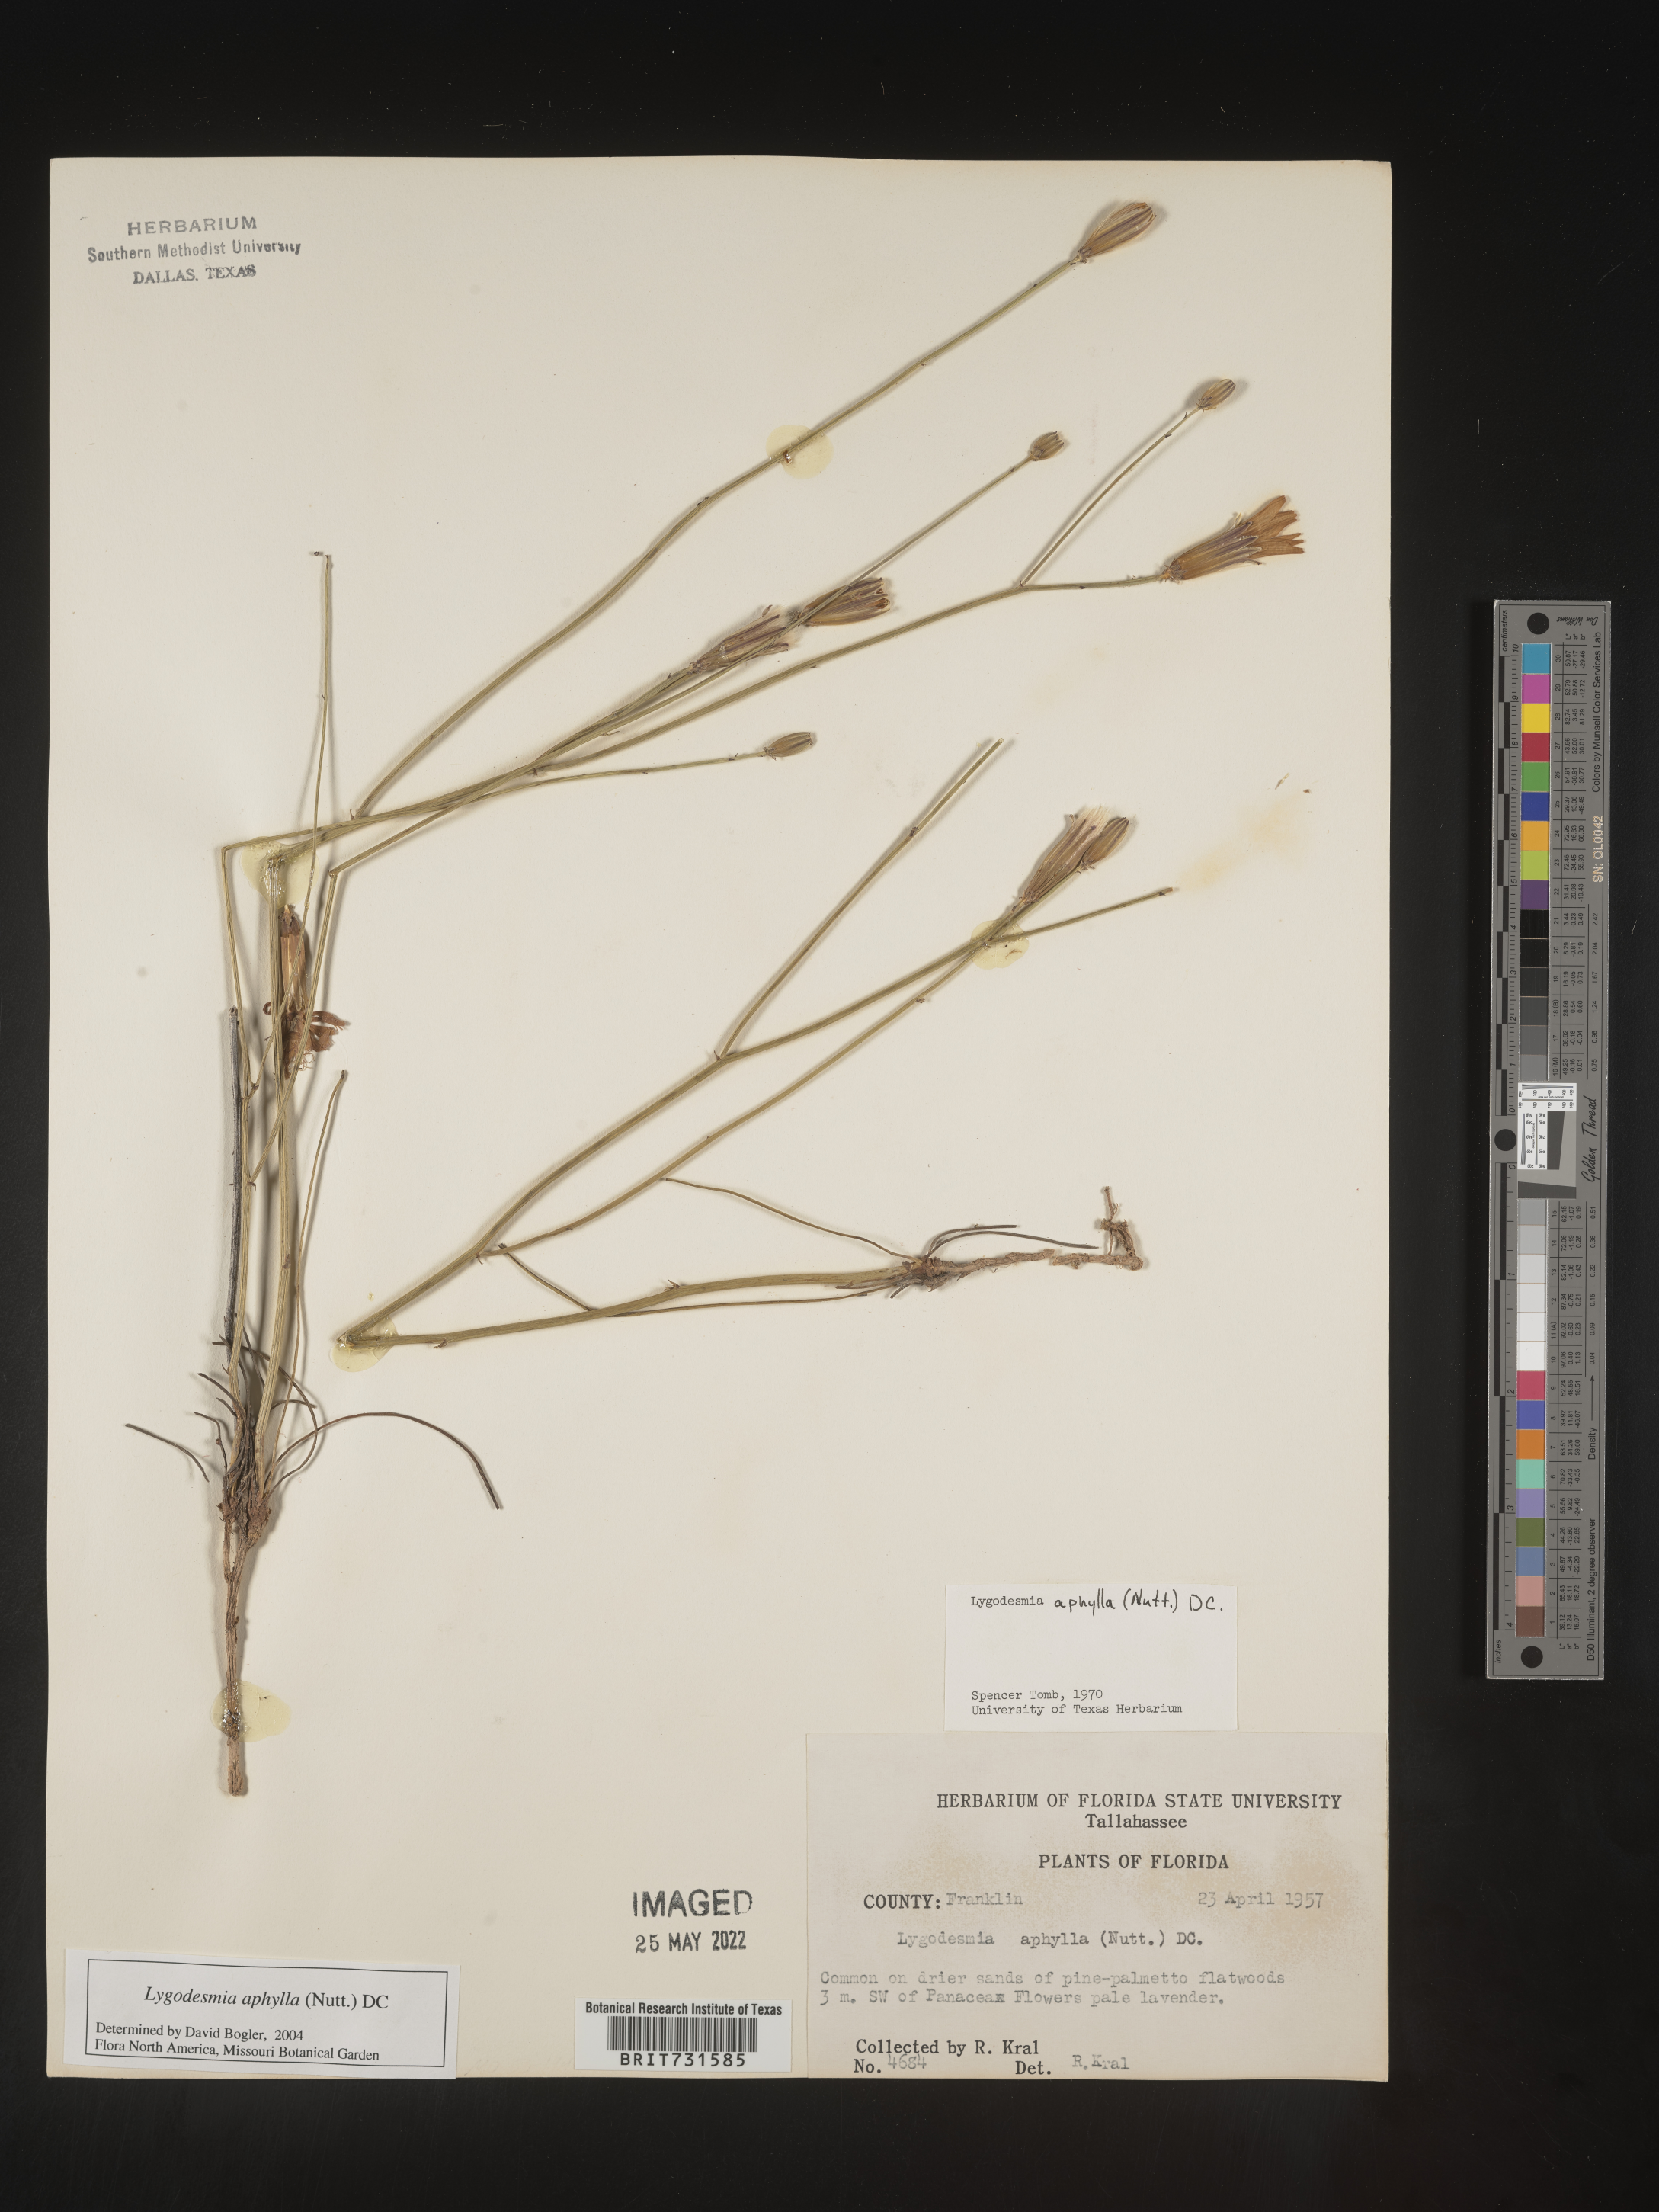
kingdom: Plantae
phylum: Tracheophyta
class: Magnoliopsida
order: Asterales
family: Asteraceae
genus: Lygodesmia
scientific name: Lygodesmia aphylla
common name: Rose-rush
